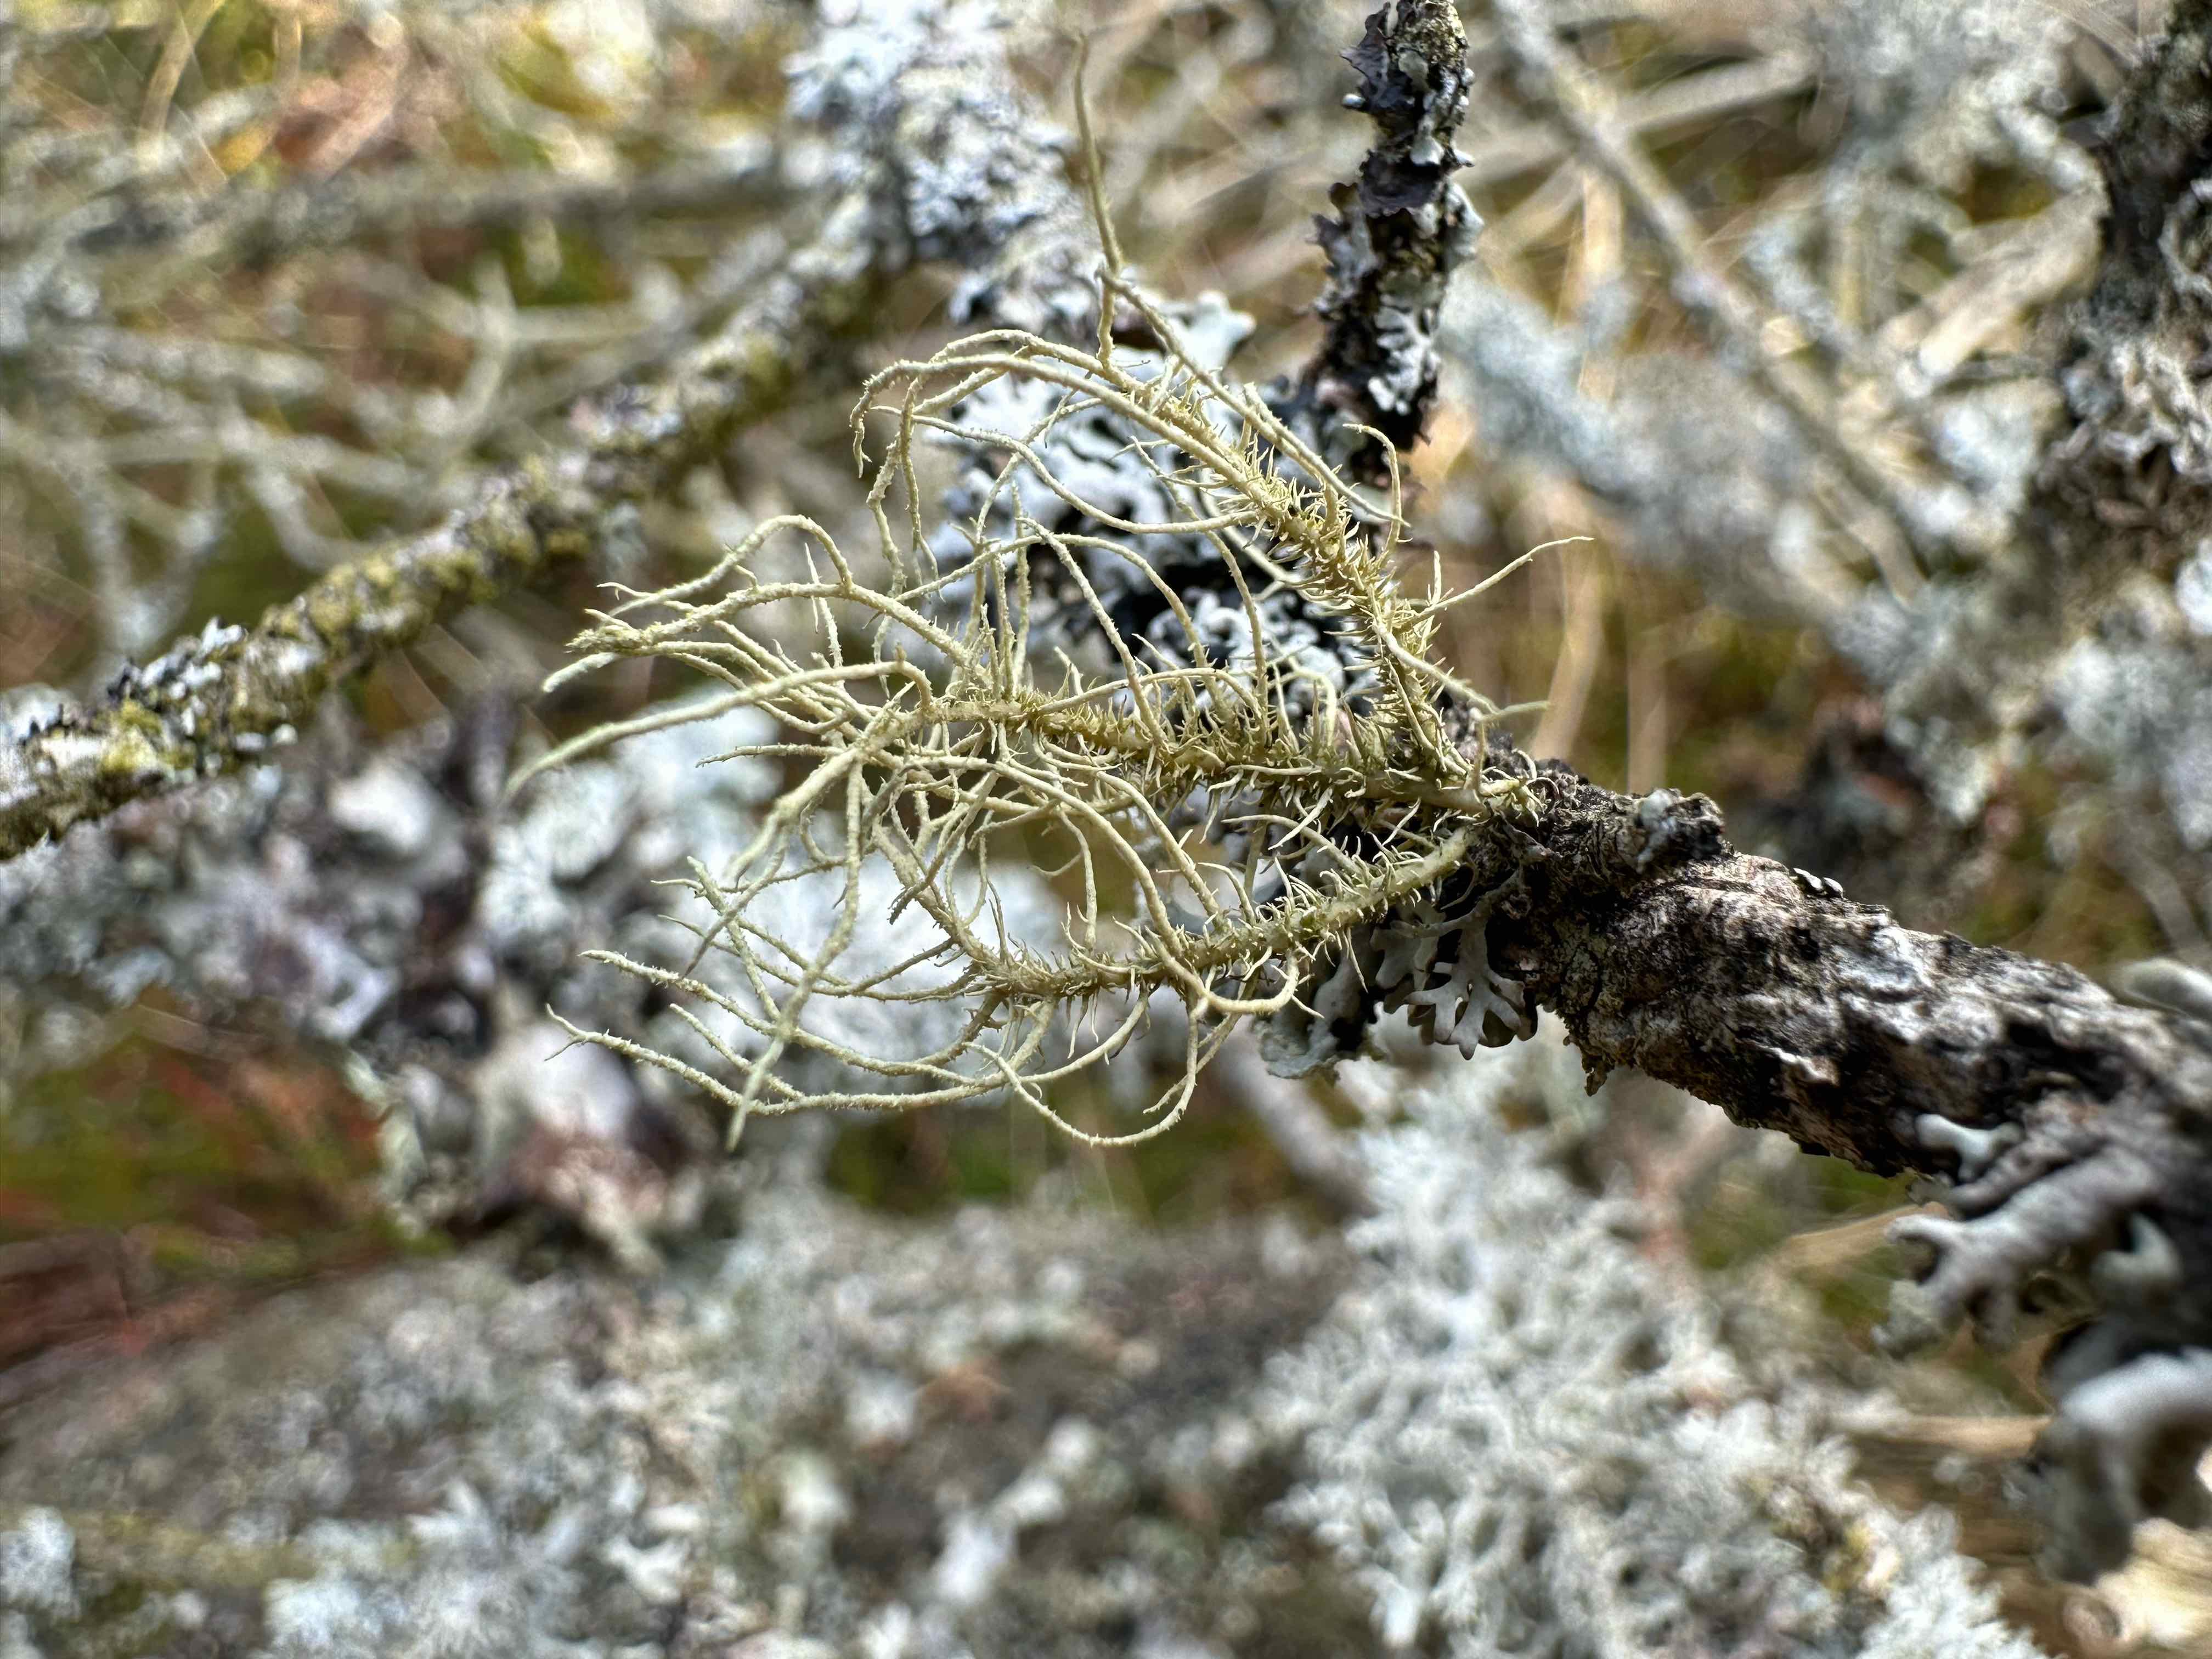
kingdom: Fungi
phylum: Ascomycota
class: Lecanoromycetes
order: Lecanorales
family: Parmeliaceae
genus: Usnea
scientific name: Usnea hirta
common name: liden skæglav
